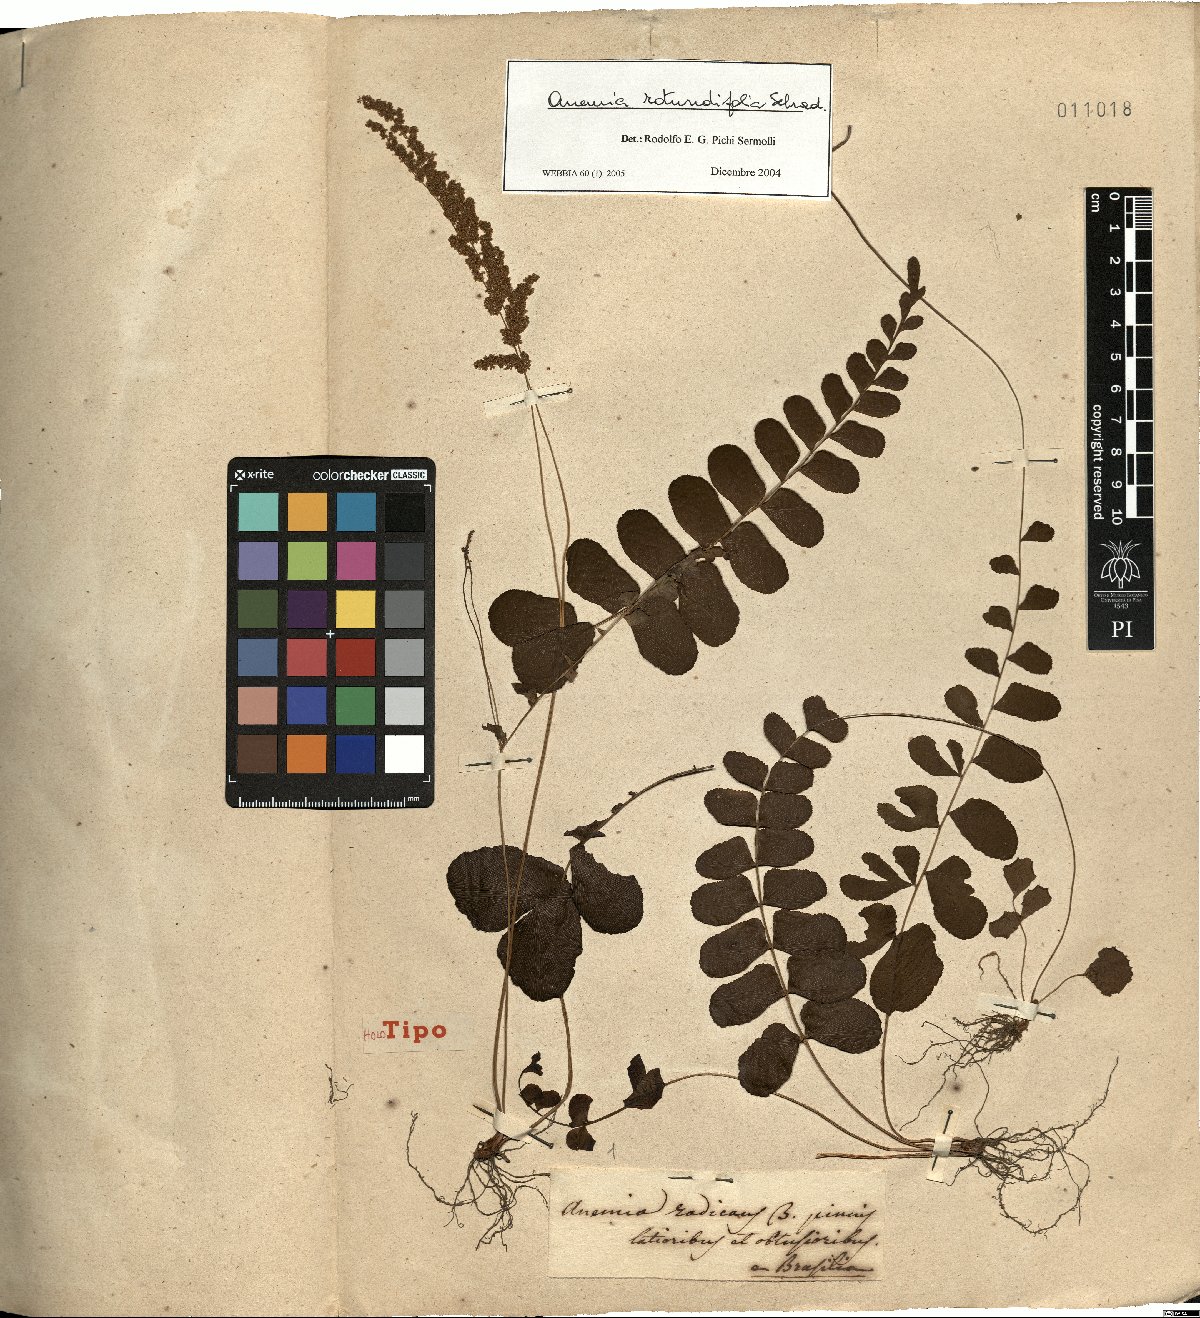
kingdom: Plantae
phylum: Tracheophyta
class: Polypodiopsida
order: Schizaeales
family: Anemiaceae
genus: Anemia
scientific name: Anemia rotundifolia
